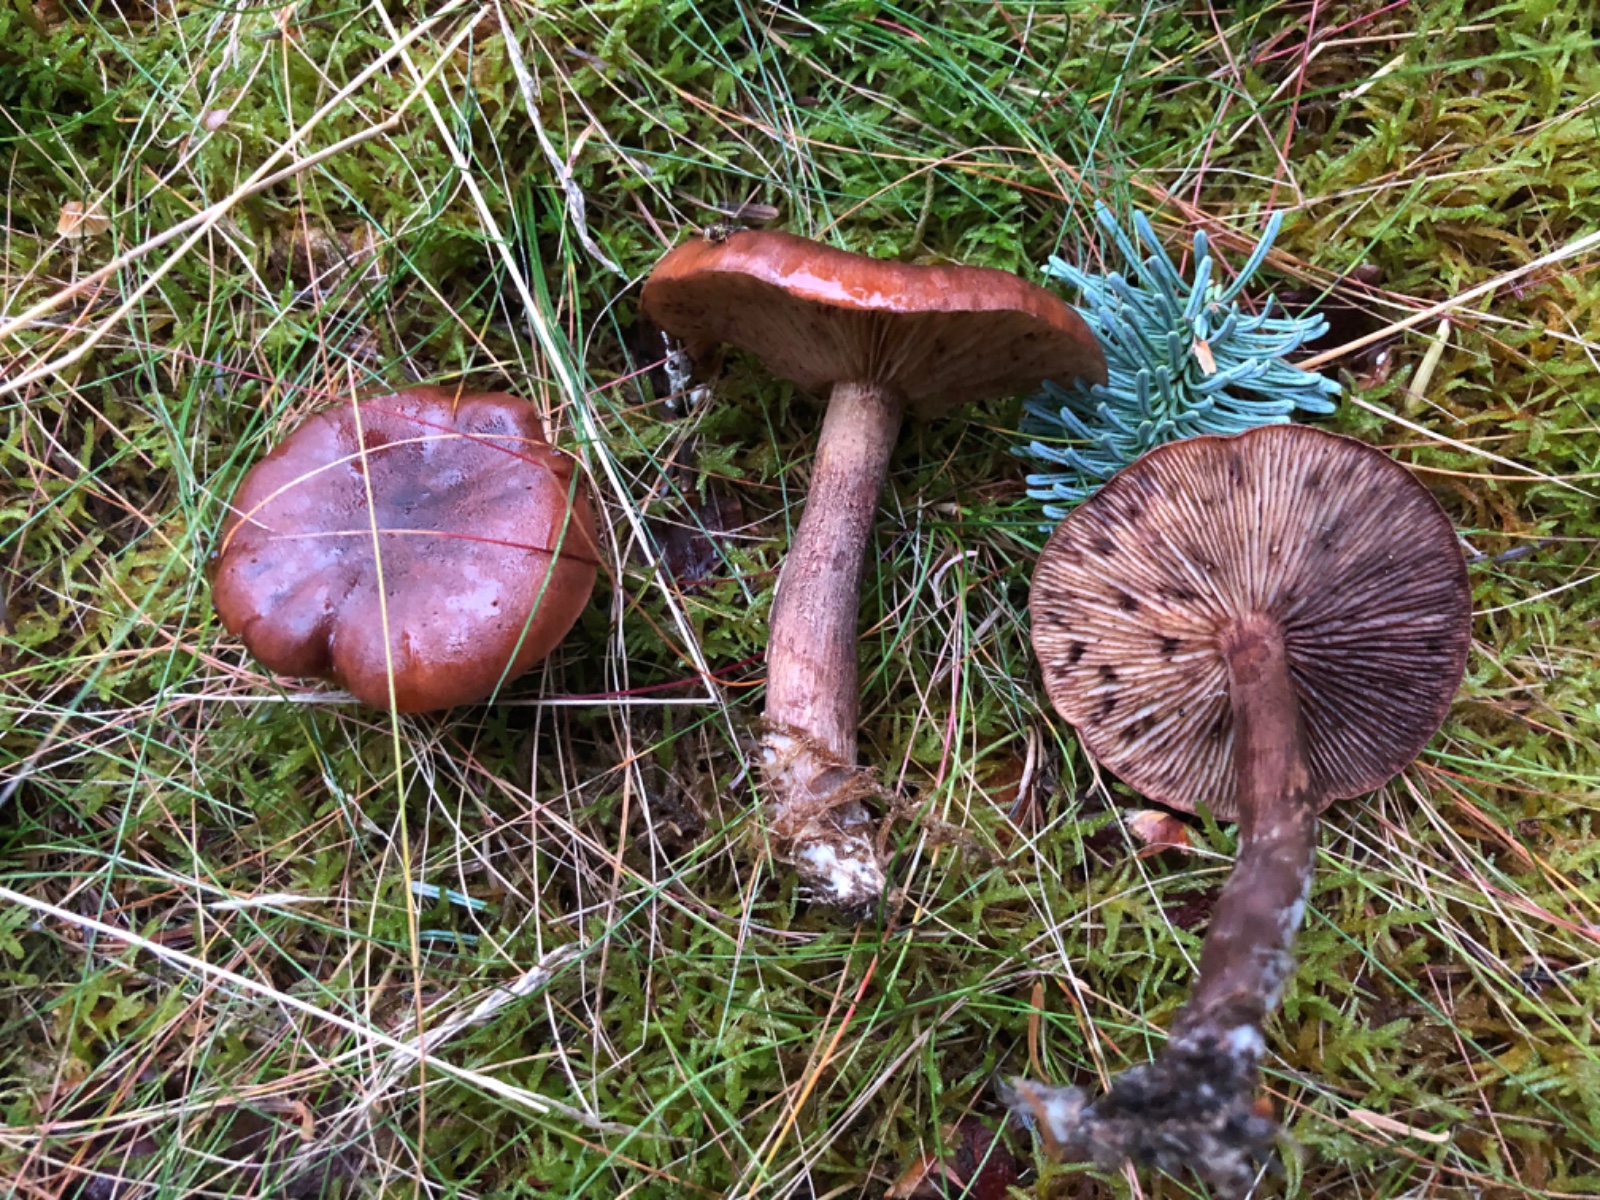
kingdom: Fungi
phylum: Basidiomycota
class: Agaricomycetes
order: Agaricales
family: Tricholomataceae
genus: Tricholoma
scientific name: Tricholoma fulvum
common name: birke-ridderhat
